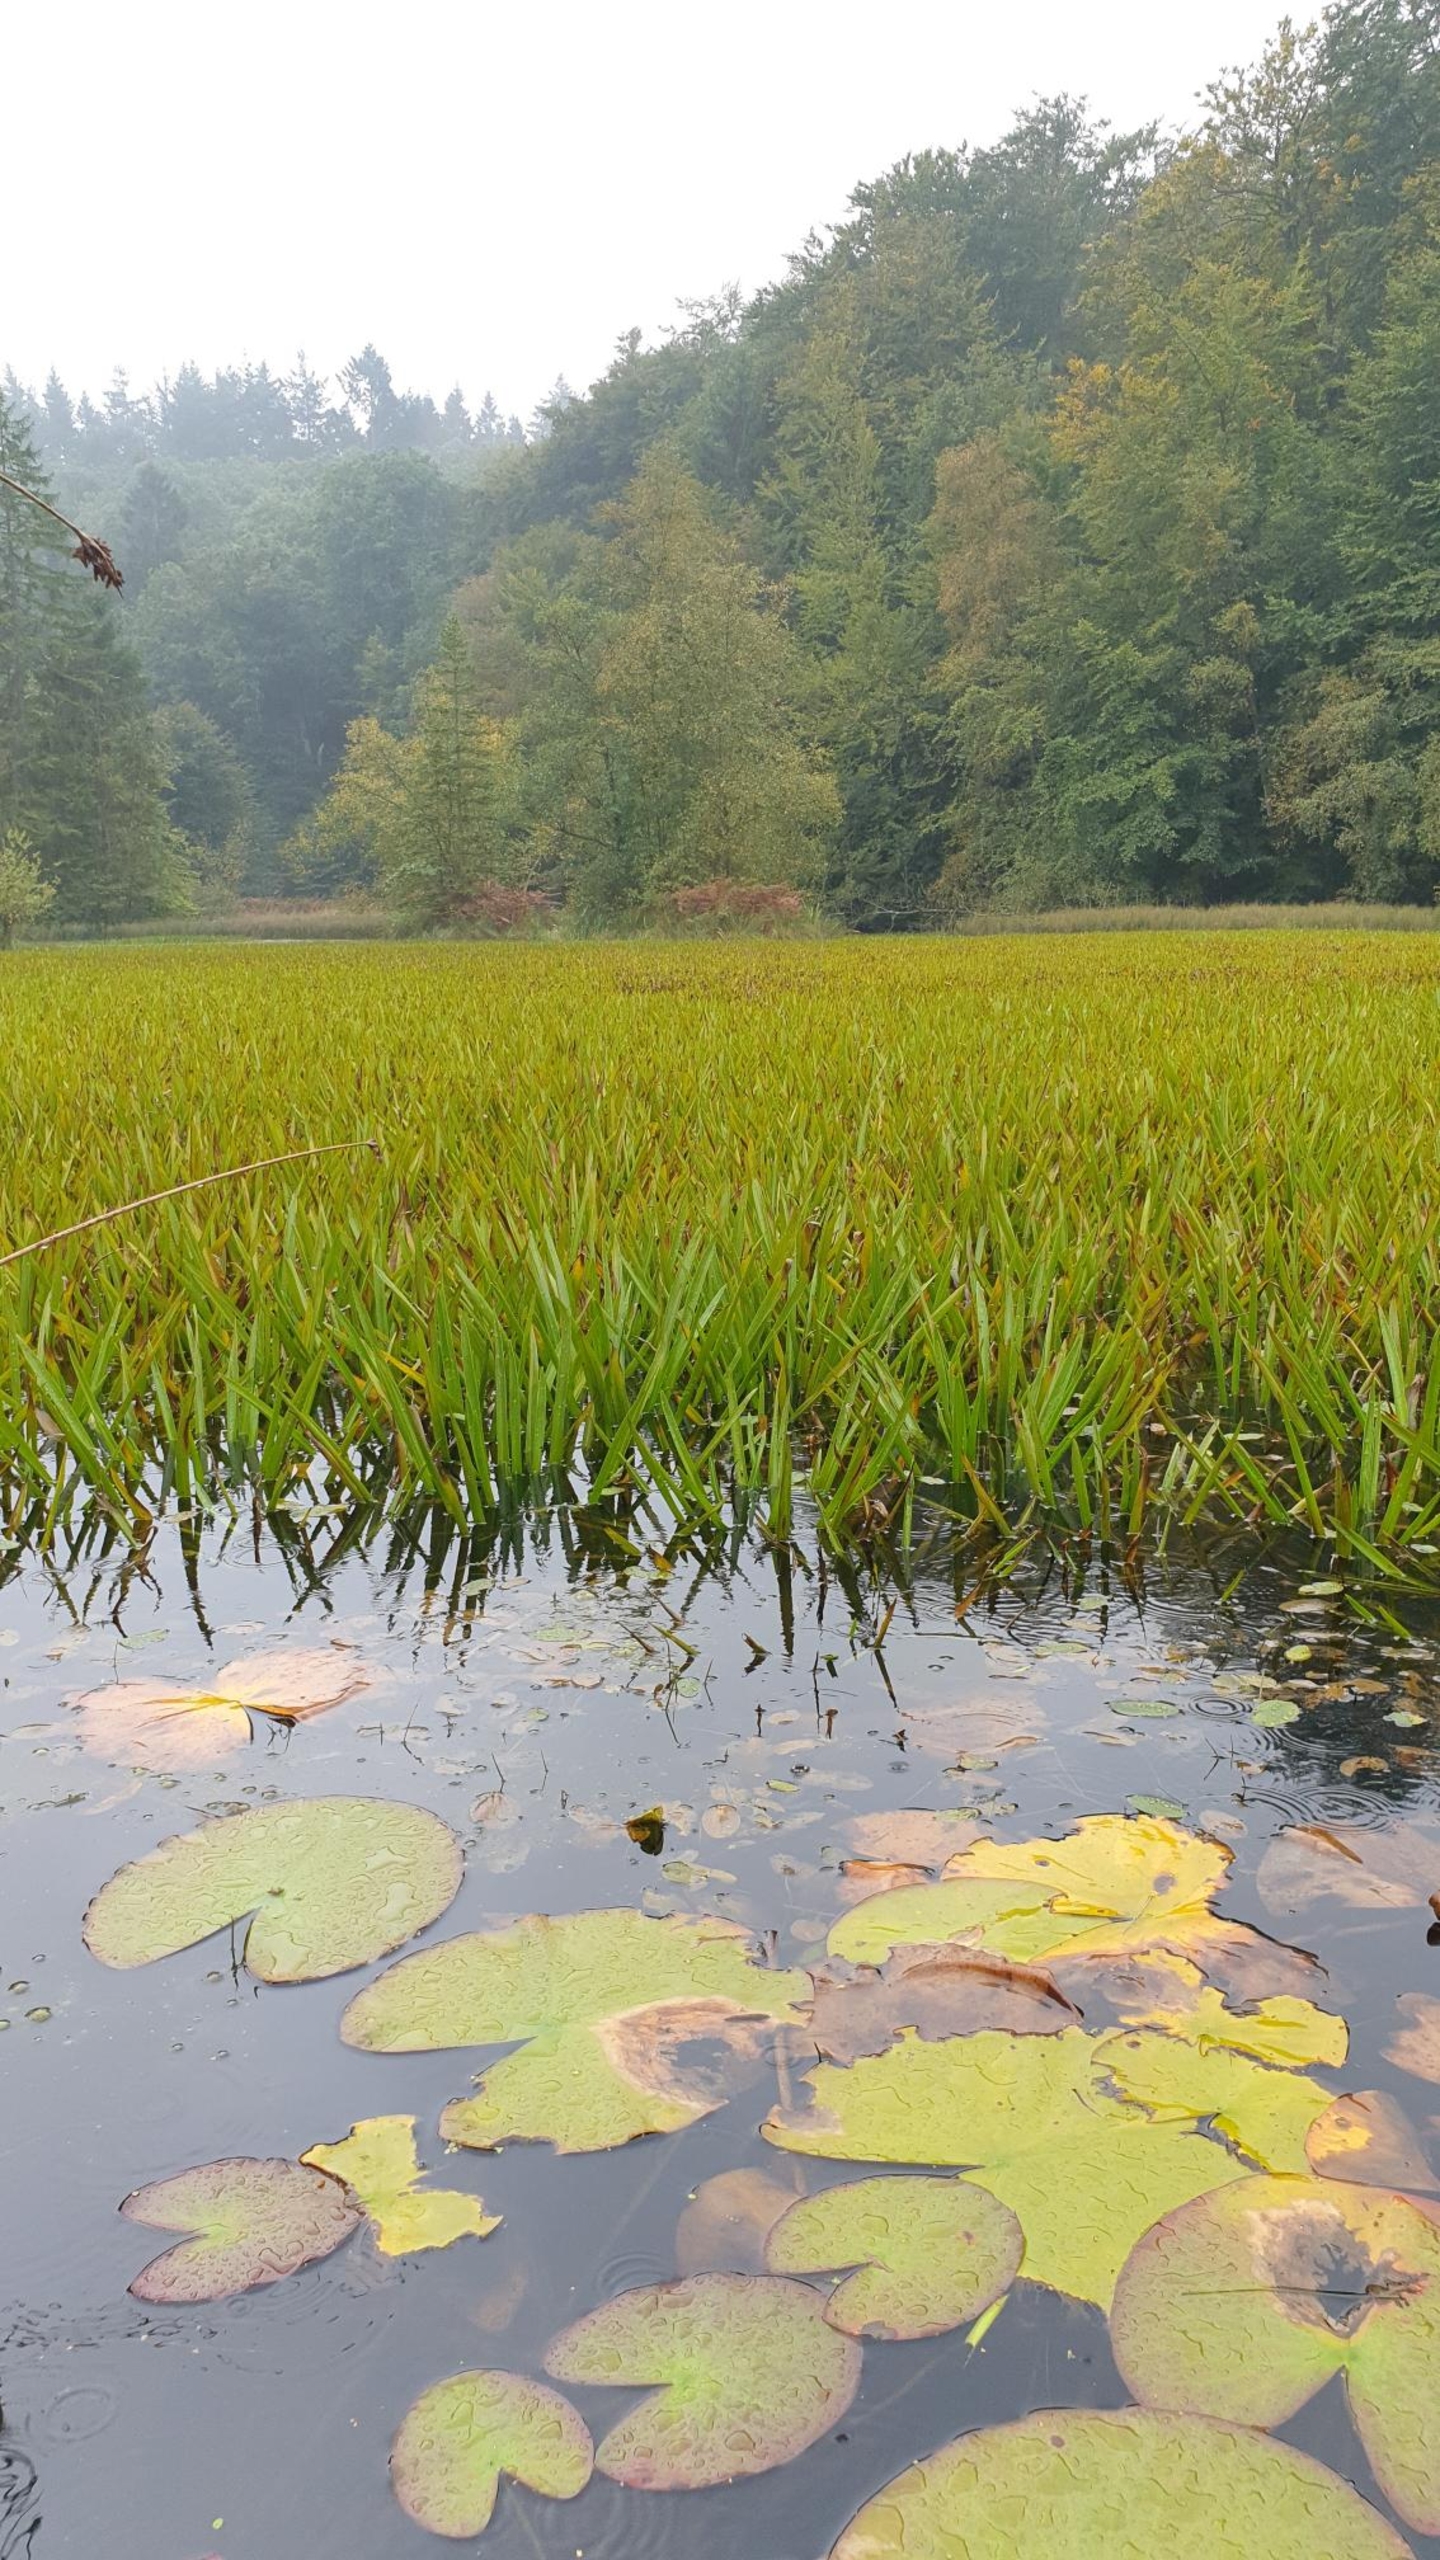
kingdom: Plantae
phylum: Tracheophyta
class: Liliopsida
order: Alismatales
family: Hydrocharitaceae
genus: Stratiotes
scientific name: Stratiotes aloides
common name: Krebseklo
